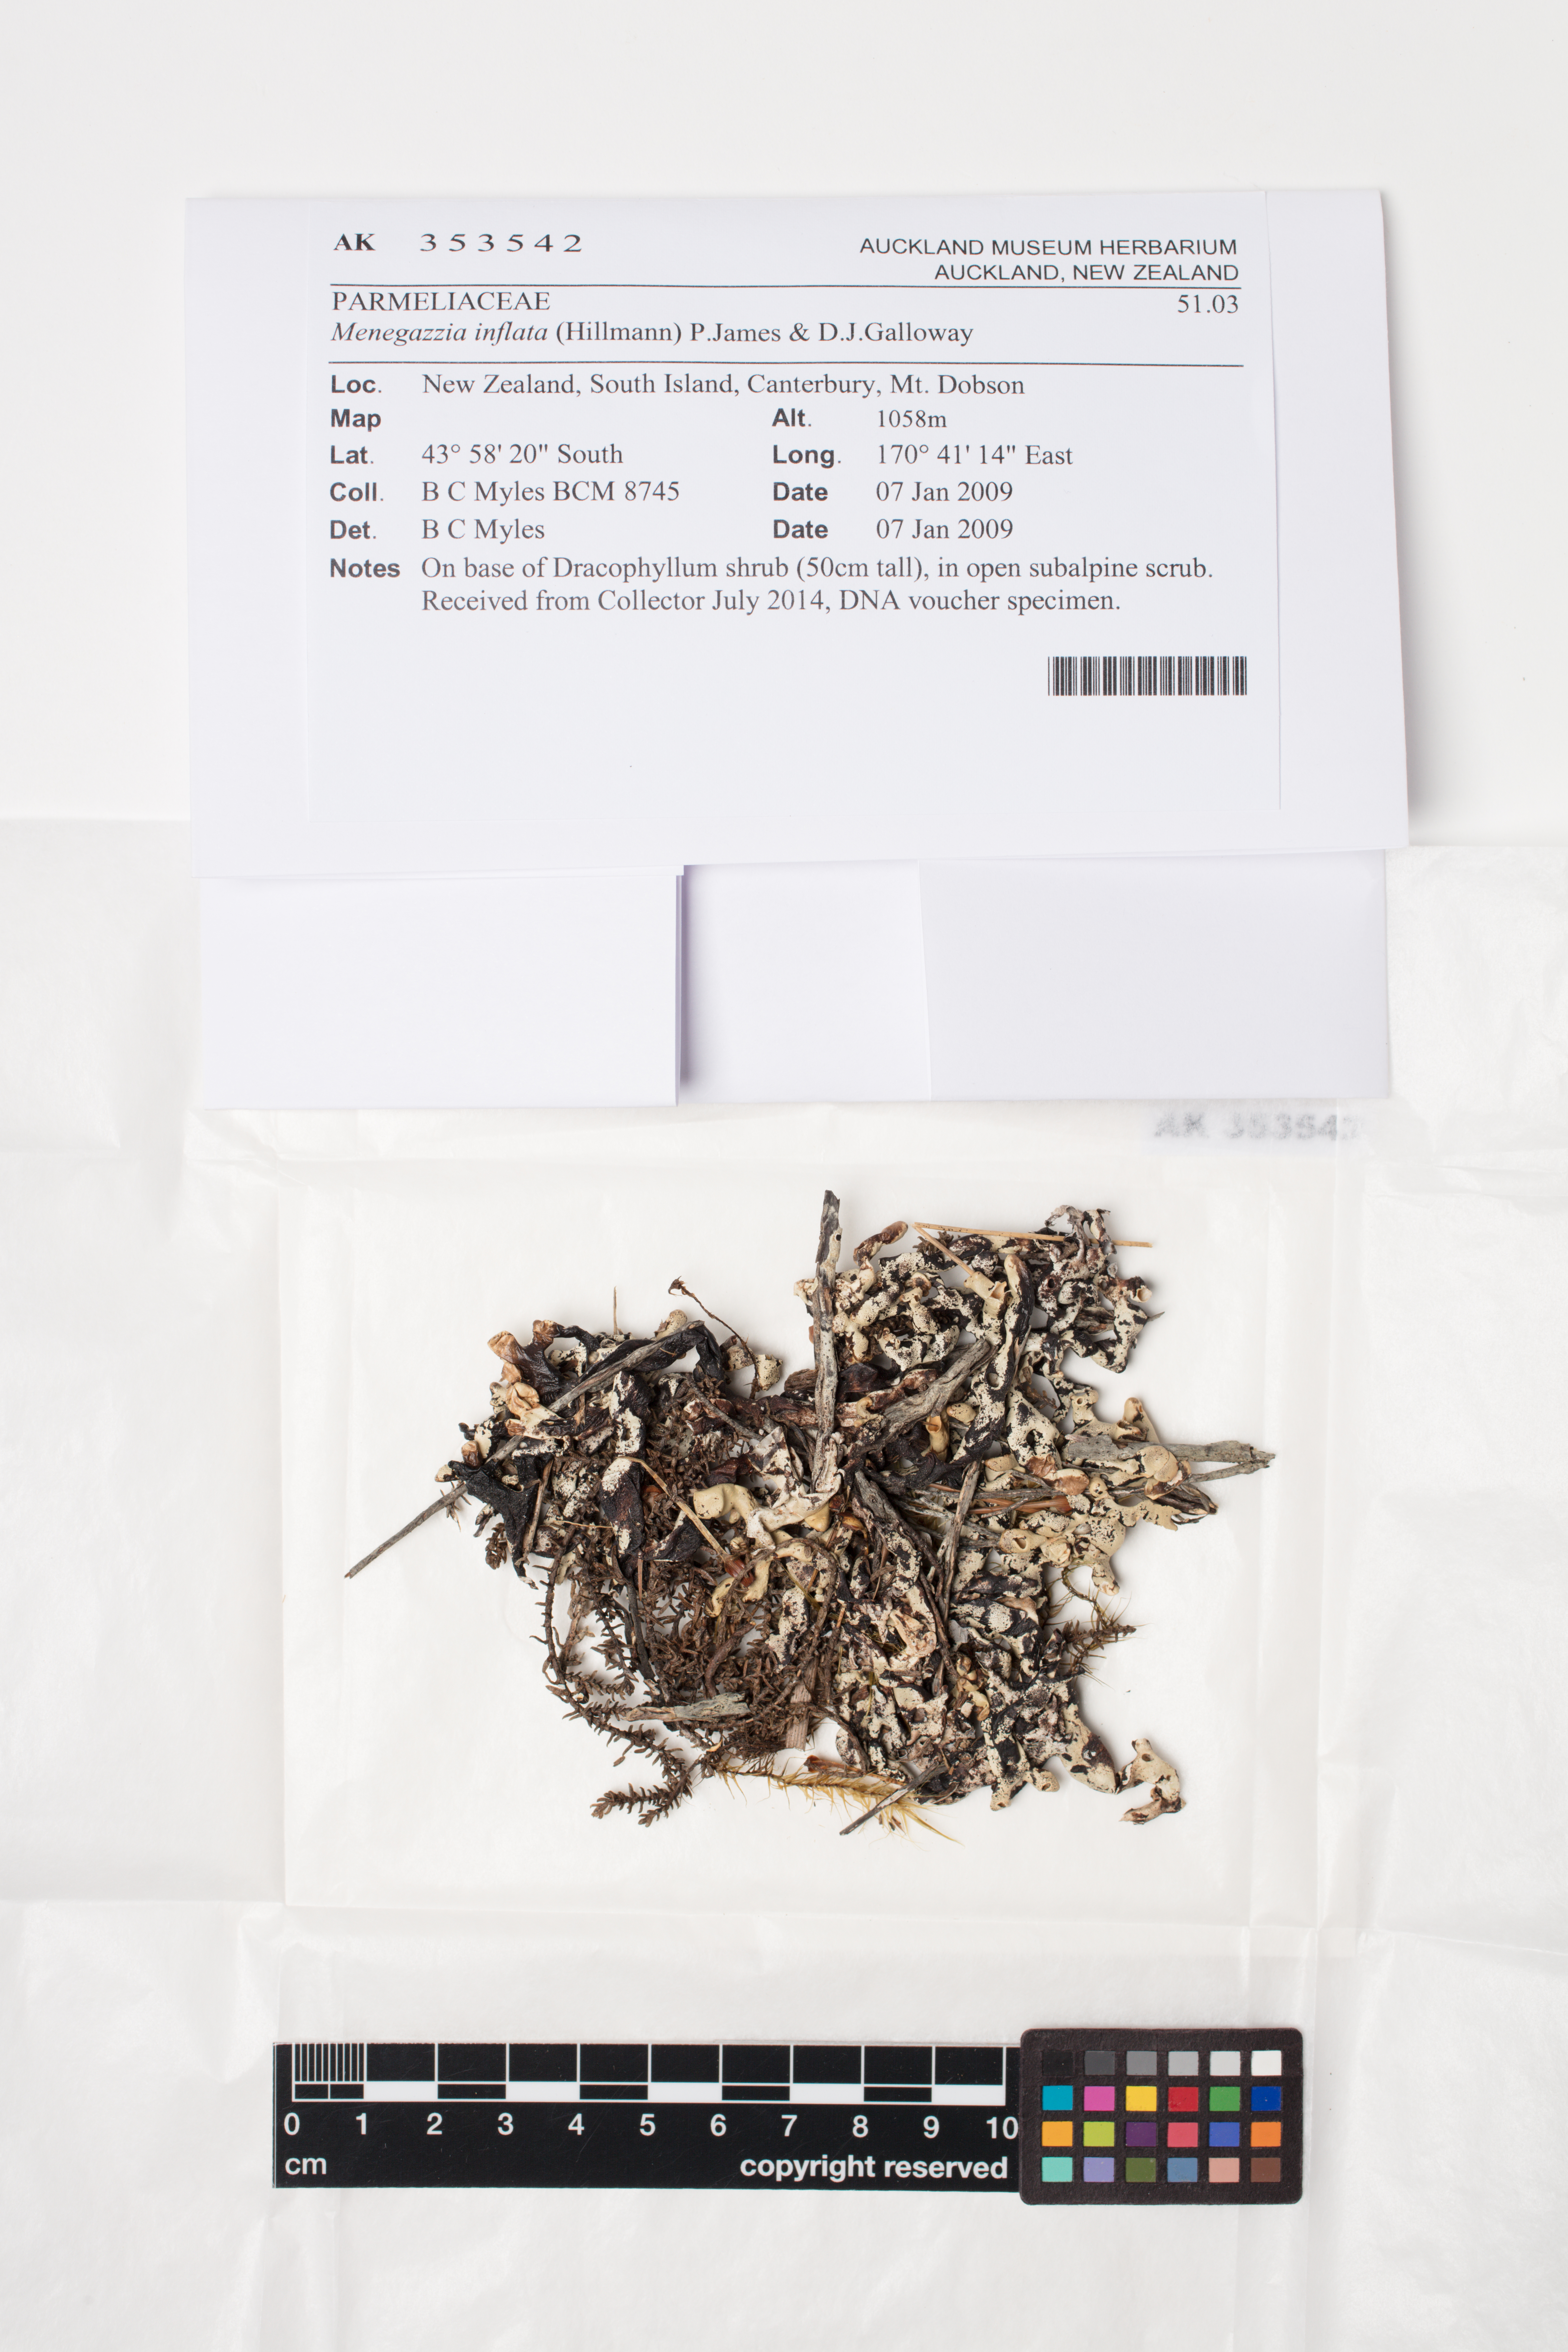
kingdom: Fungi
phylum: Ascomycota
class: Lecanoromycetes
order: Lecanorales
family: Parmeliaceae
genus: Menegazzia
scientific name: Menegazzia
